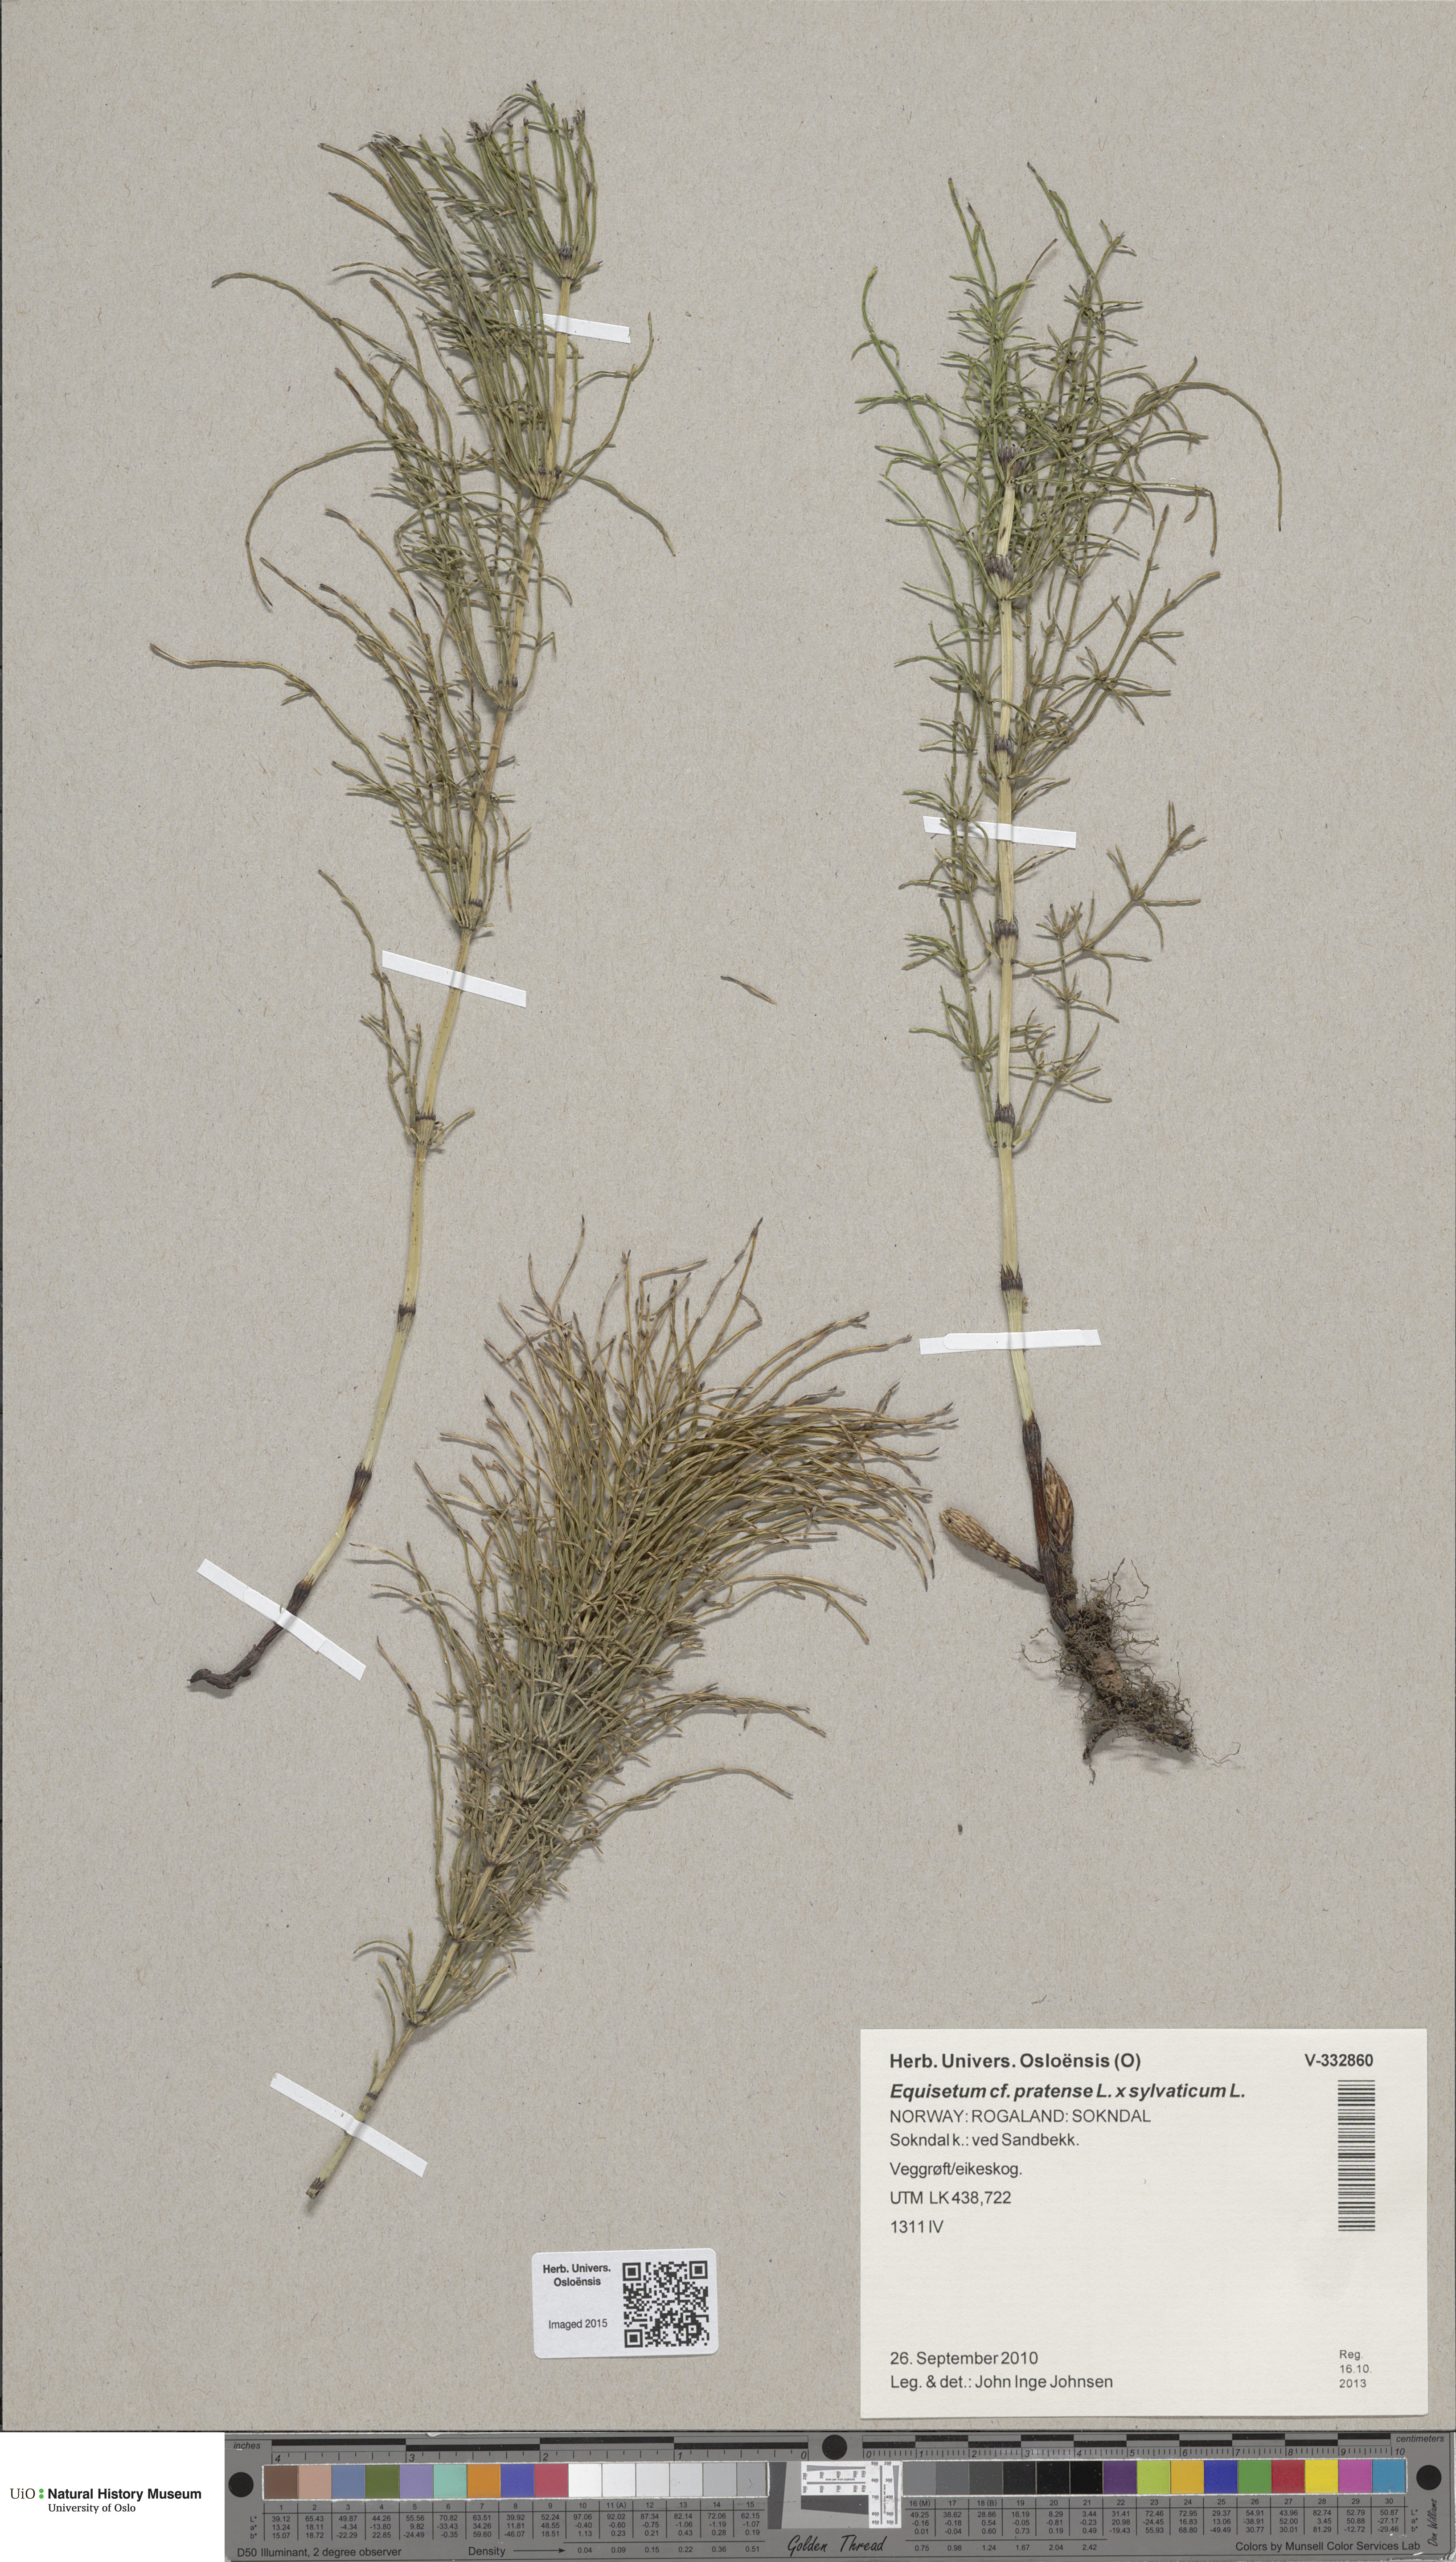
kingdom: Plantae
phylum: Tracheophyta
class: Polypodiopsida
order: Equisetales
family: Equisetaceae
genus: Equisetum
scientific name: Equisetum
